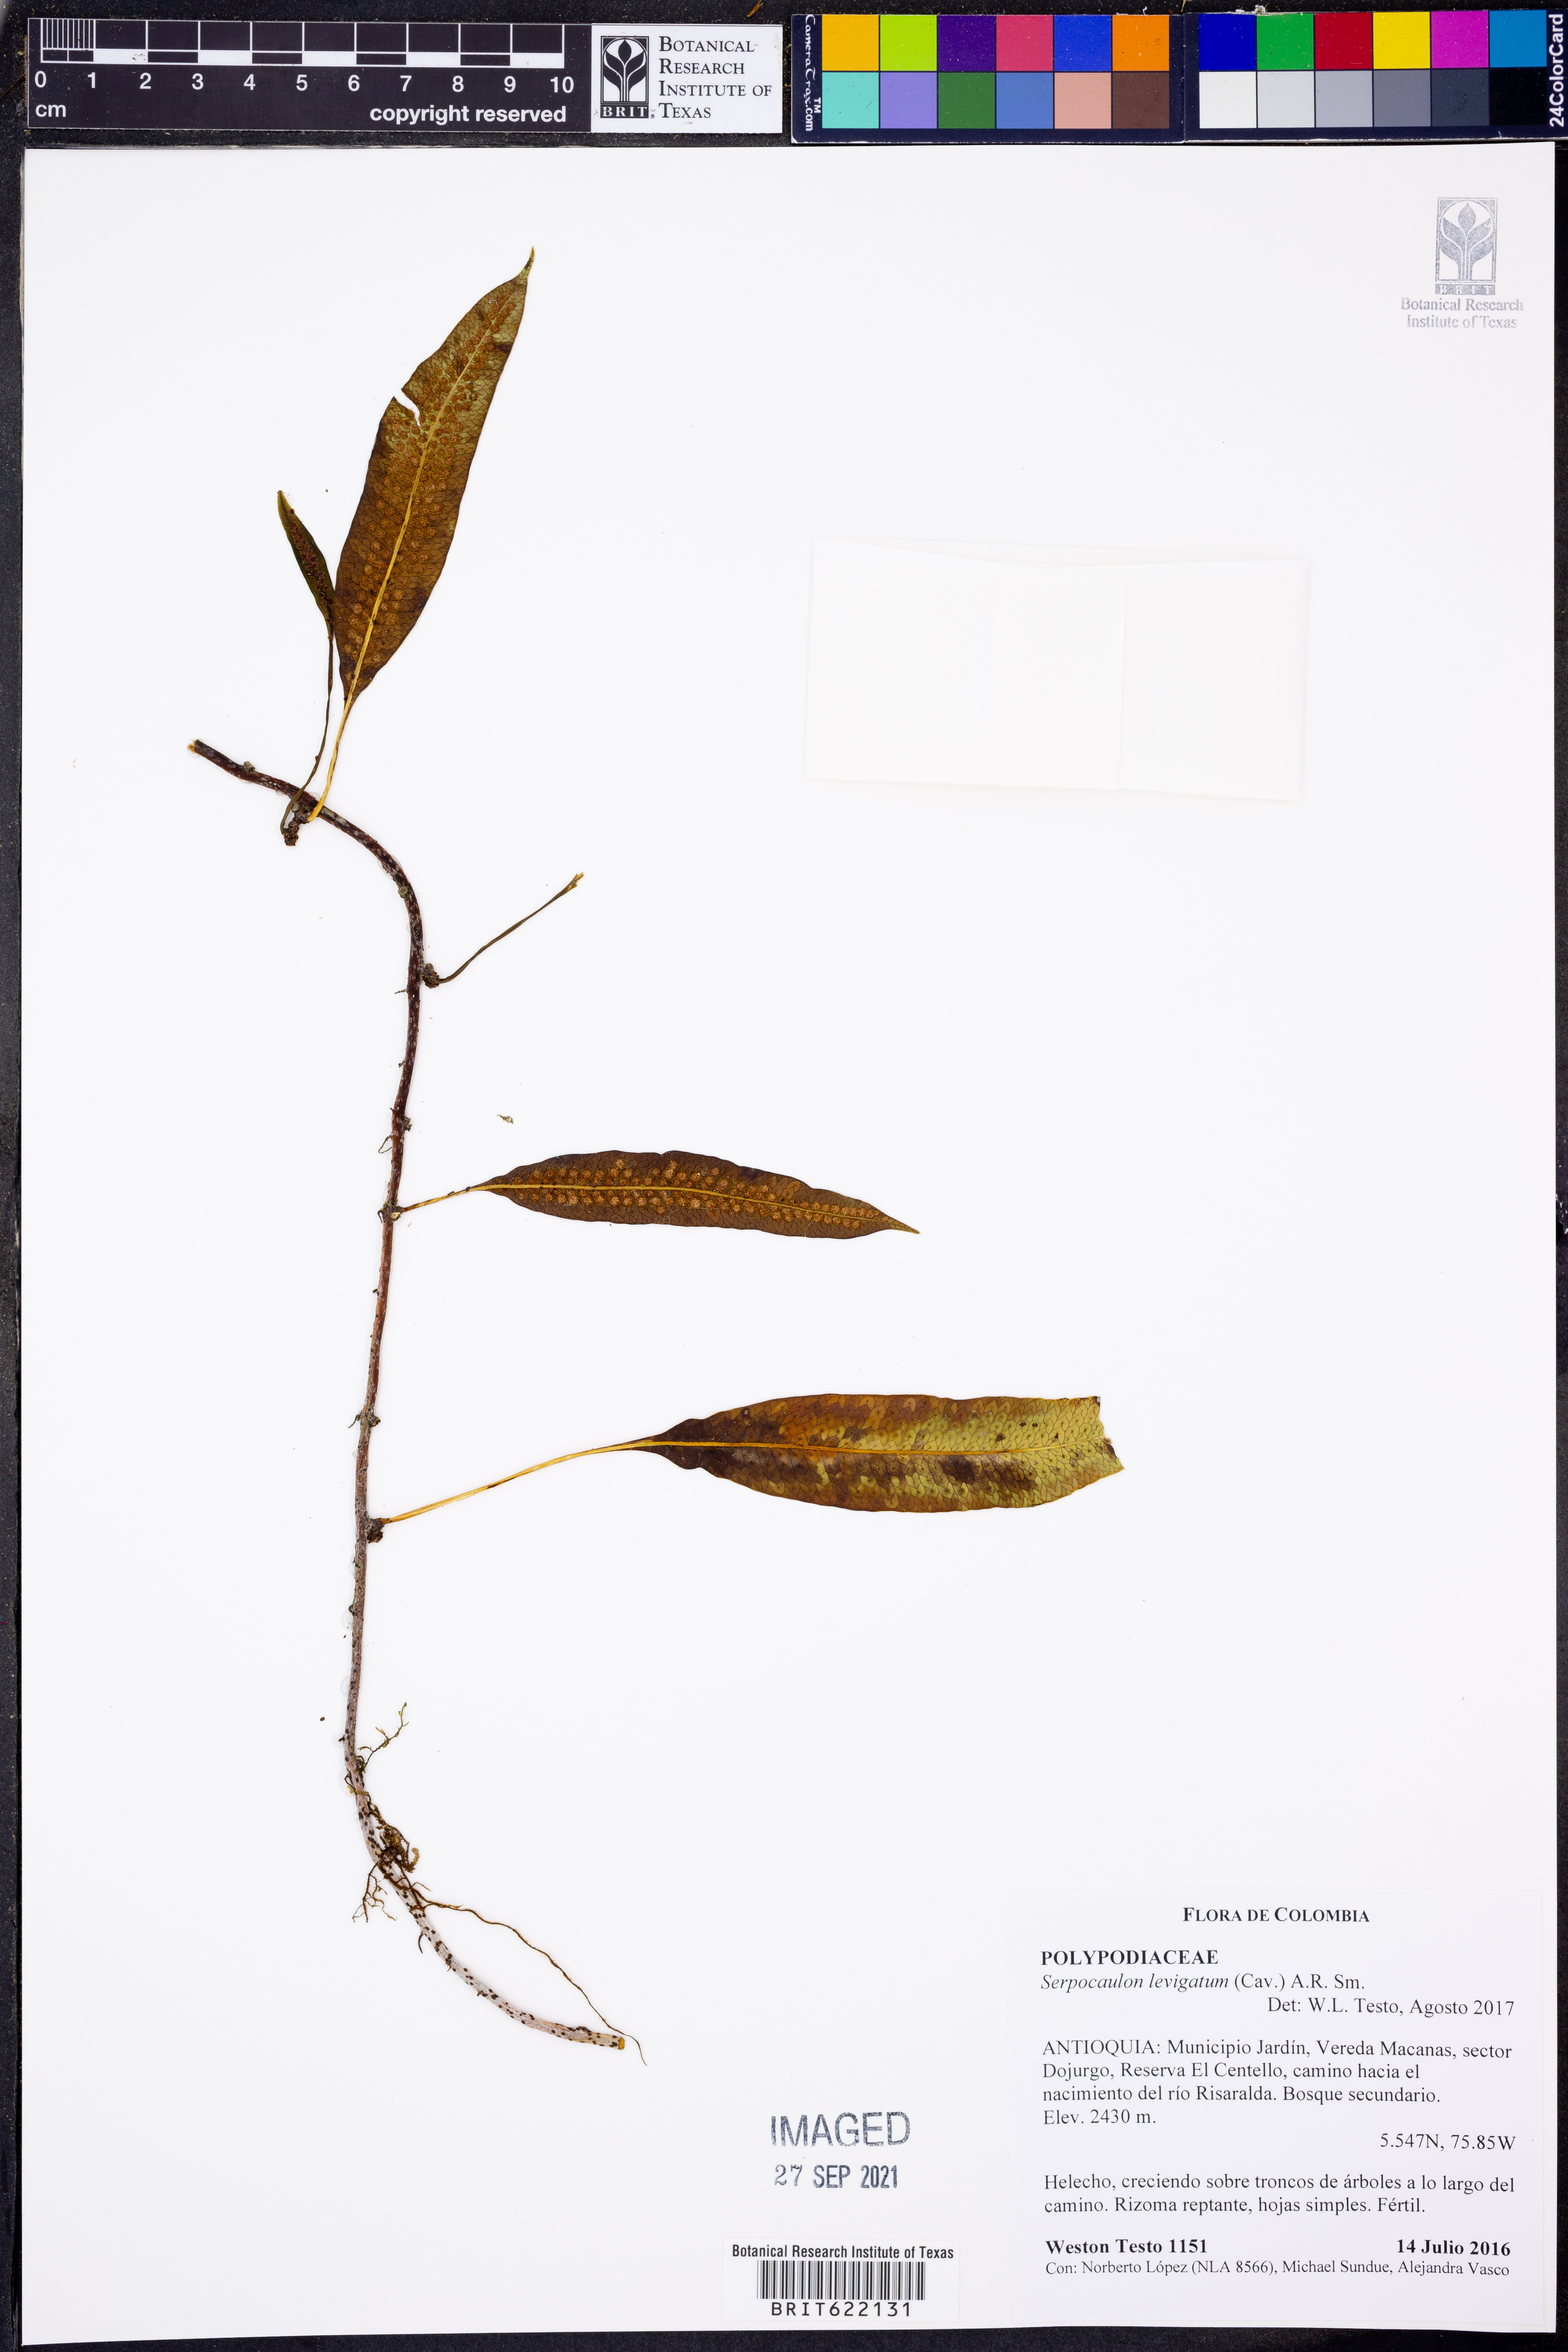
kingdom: Plantae
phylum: Tracheophyta
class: Polypodiopsida
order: Polypodiales
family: Polypodiaceae
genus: Serpocaulon
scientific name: Serpocaulon levigatum
